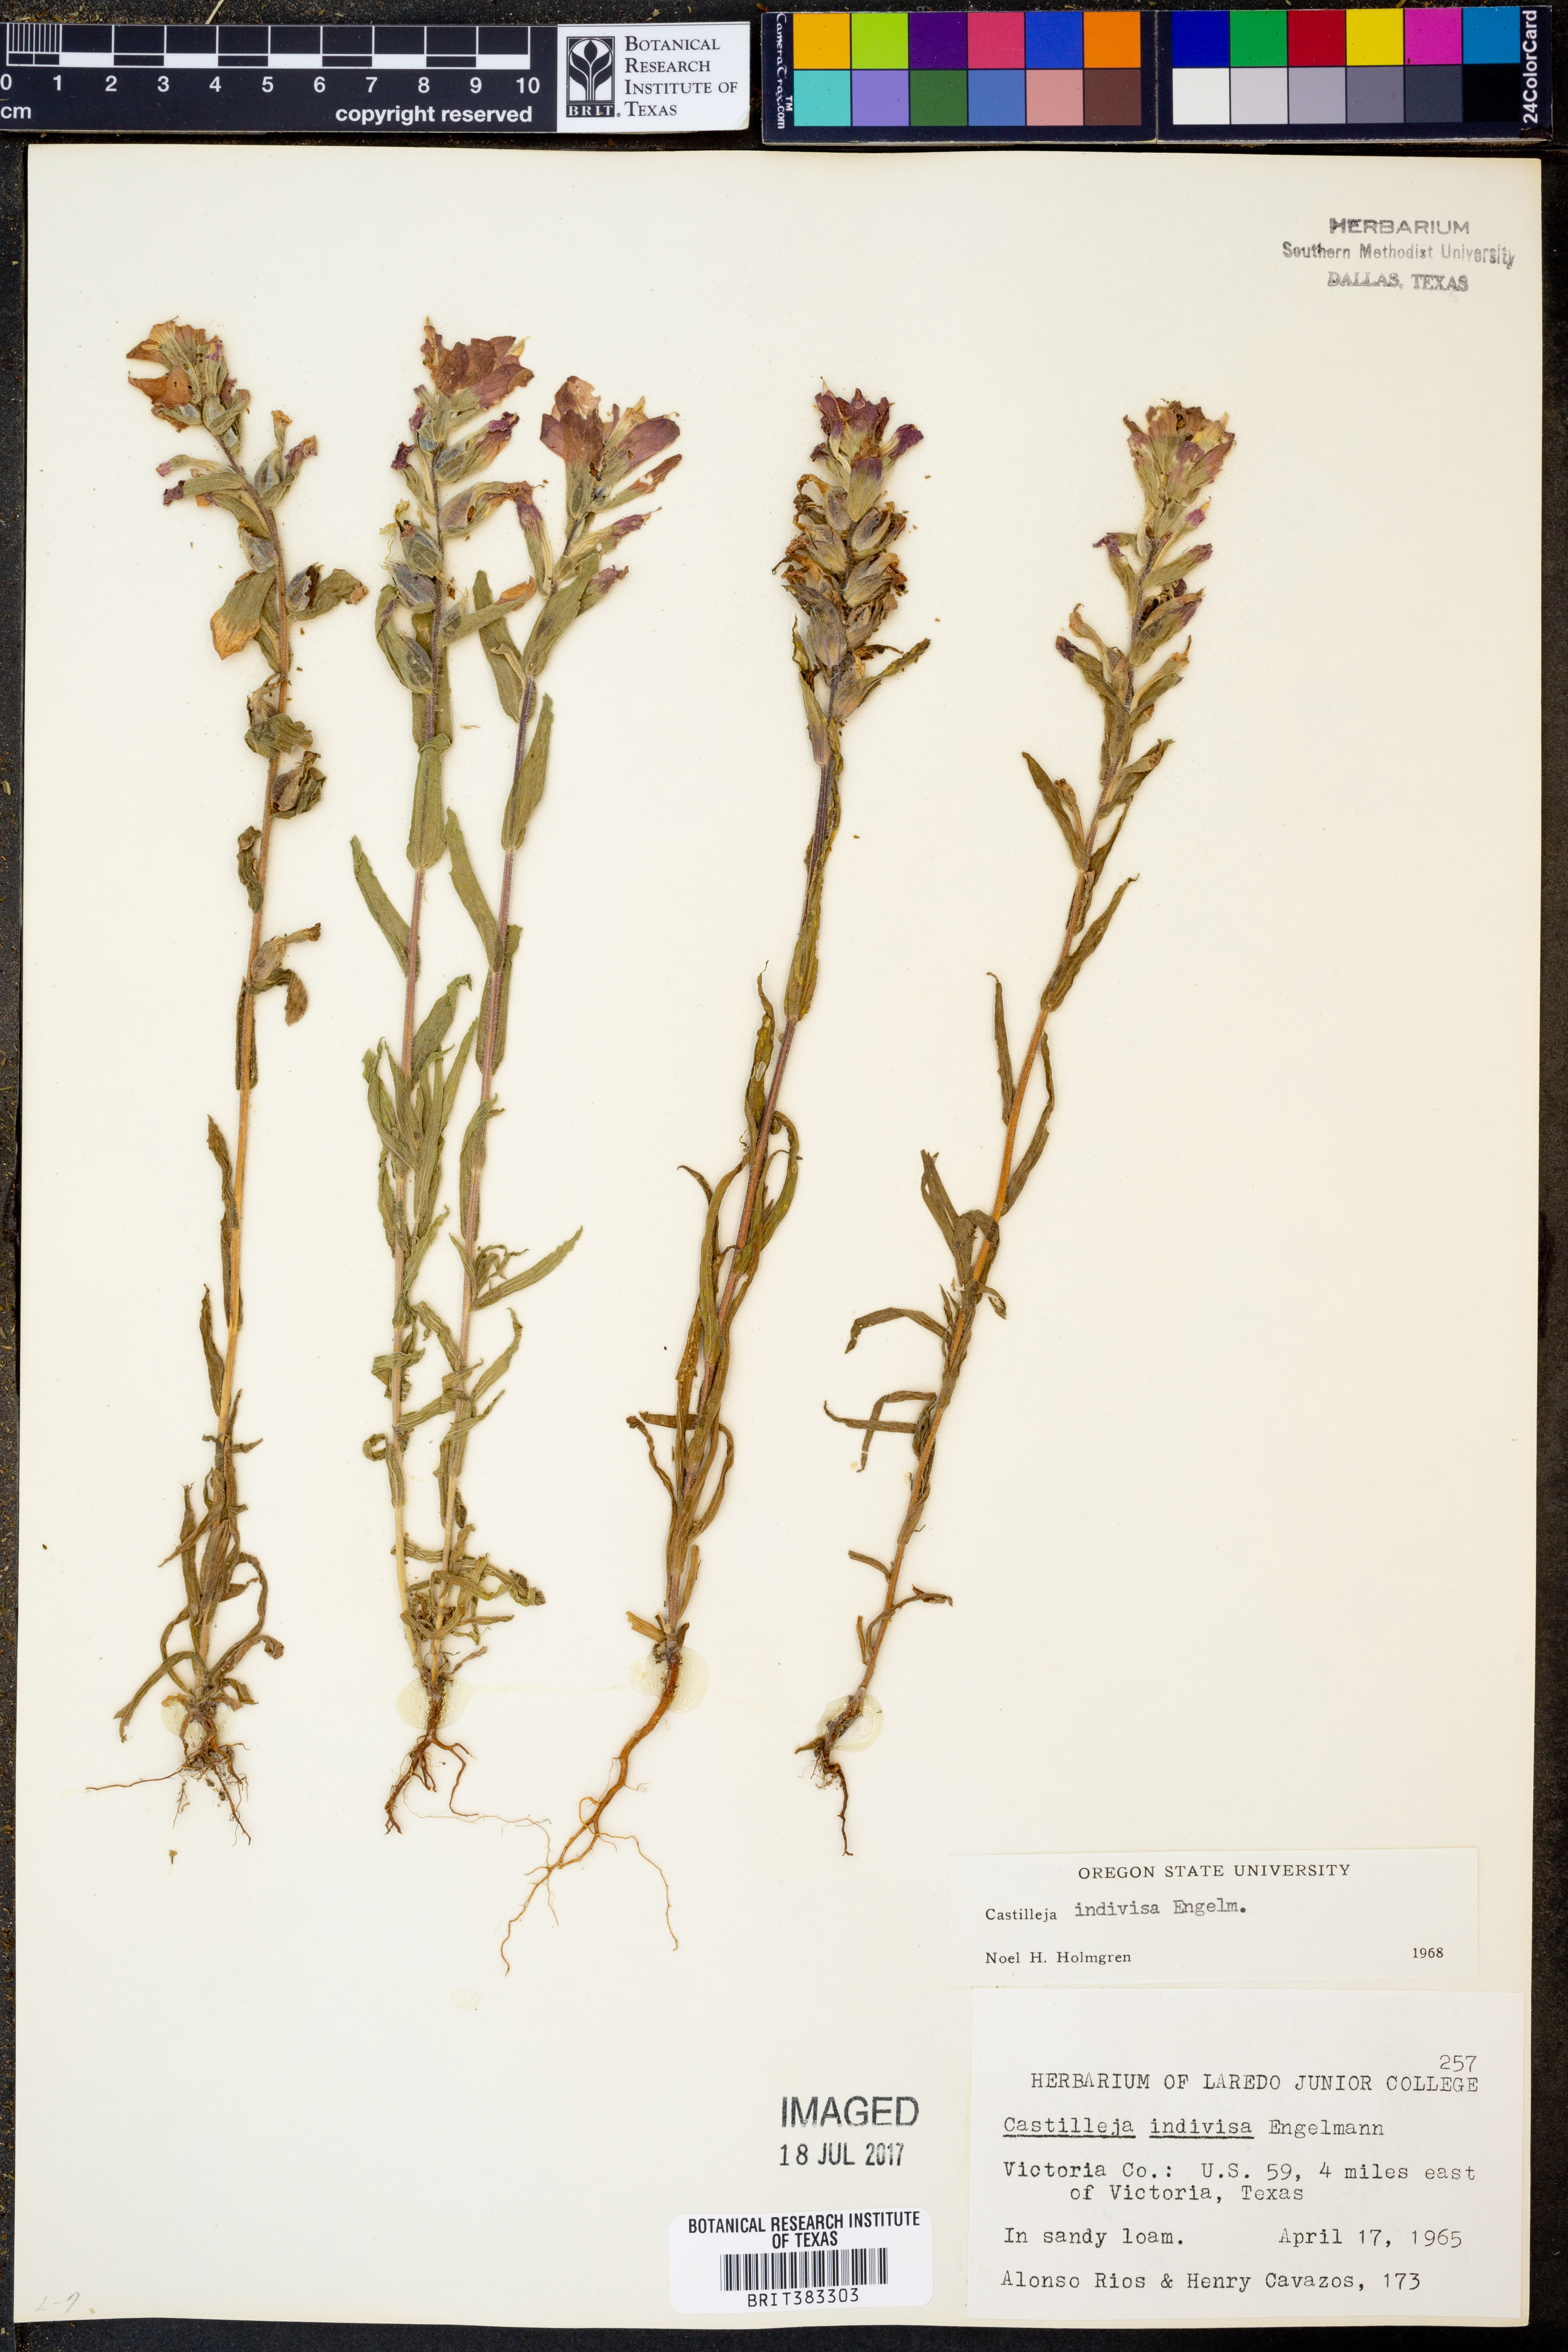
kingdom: Plantae
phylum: Tracheophyta
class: Magnoliopsida
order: Lamiales
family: Orobanchaceae
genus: Castilleja
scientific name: Castilleja indivisa
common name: Texas paintbrush
